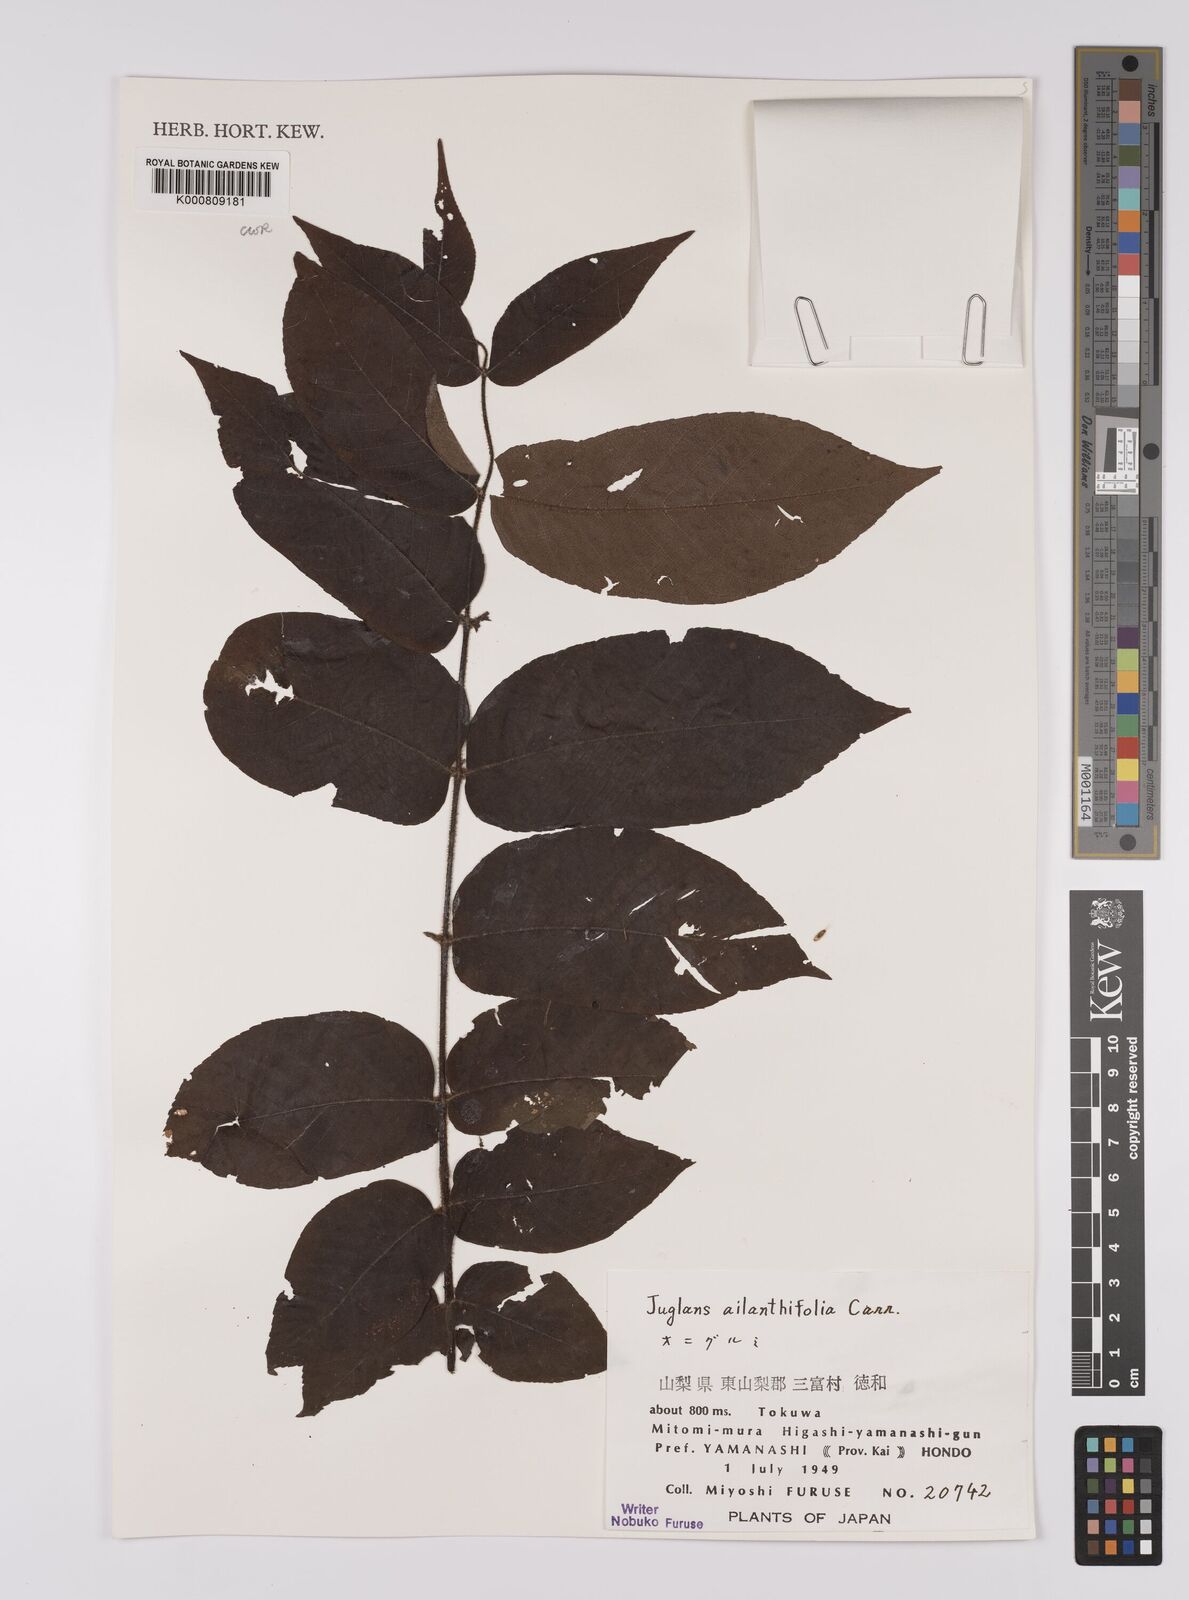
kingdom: Plantae
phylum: Tracheophyta
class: Magnoliopsida
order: Fagales
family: Juglandaceae
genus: Juglans
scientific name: Juglans
